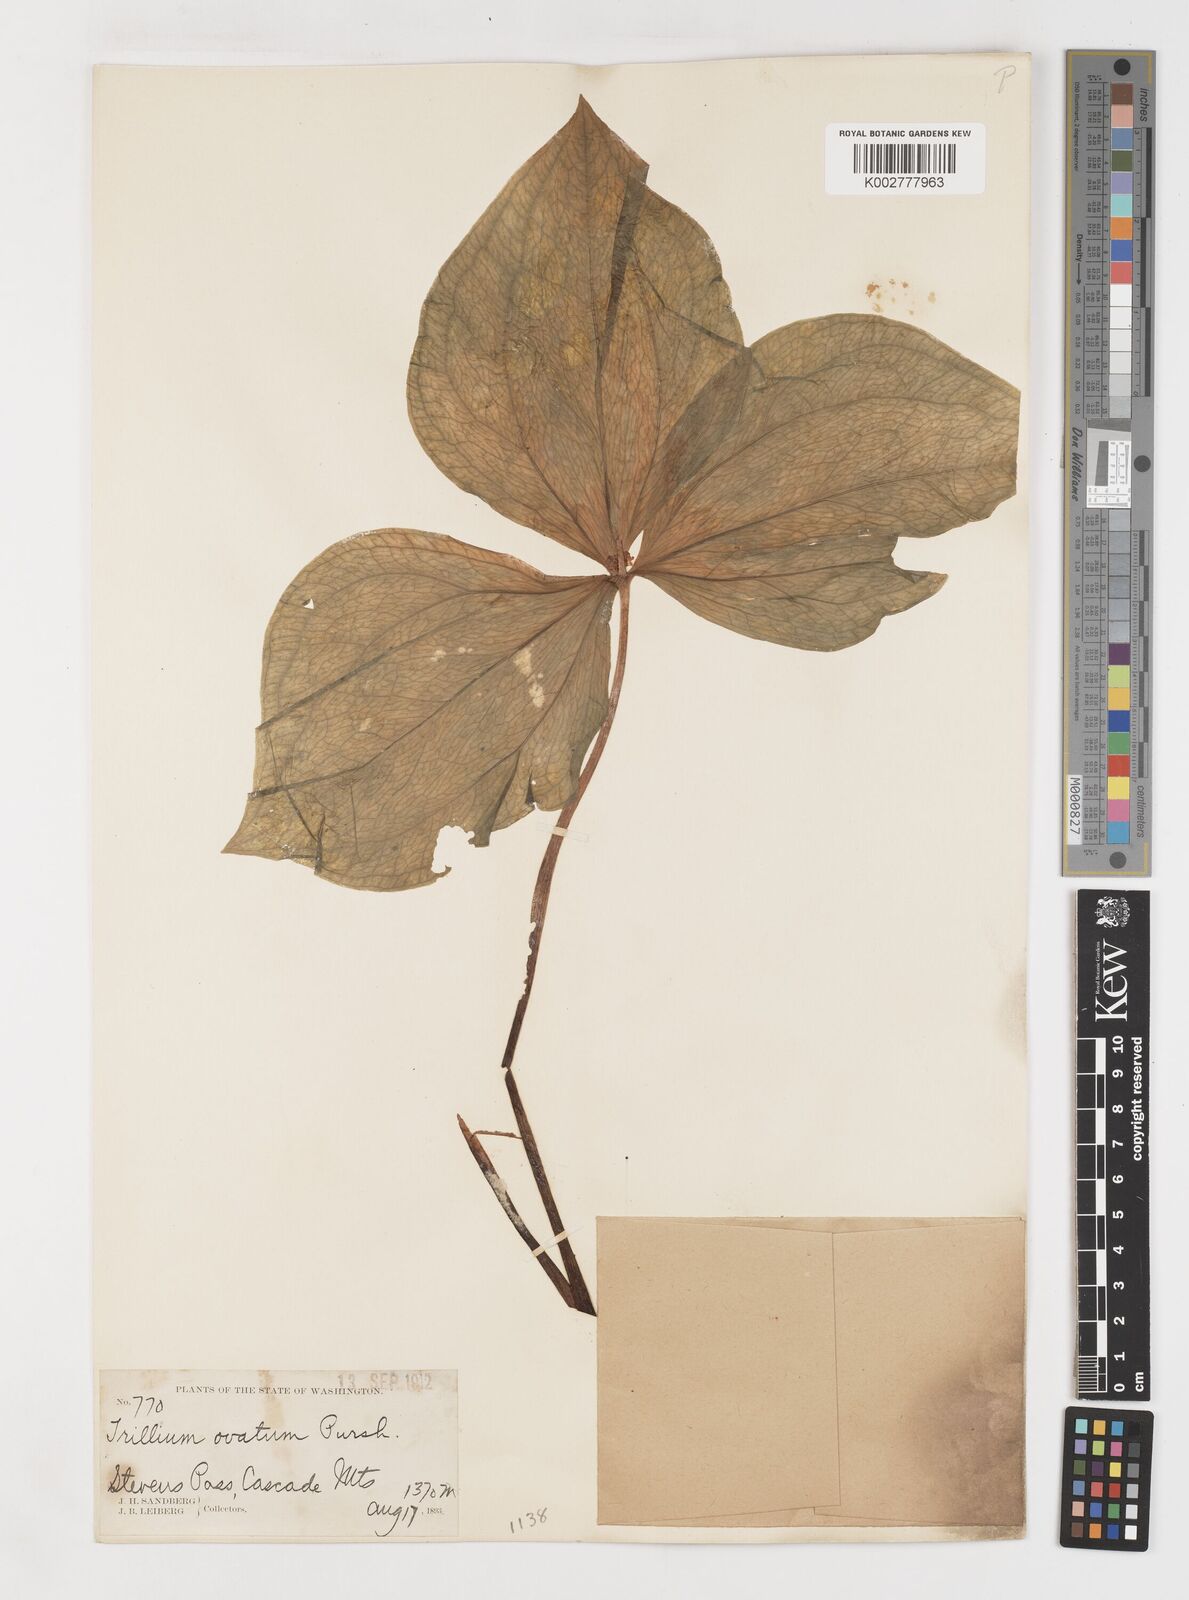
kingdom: Plantae
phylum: Tracheophyta
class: Liliopsida
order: Liliales
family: Melanthiaceae
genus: Trillium
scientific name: Trillium ovatum
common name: Pacific trillium
